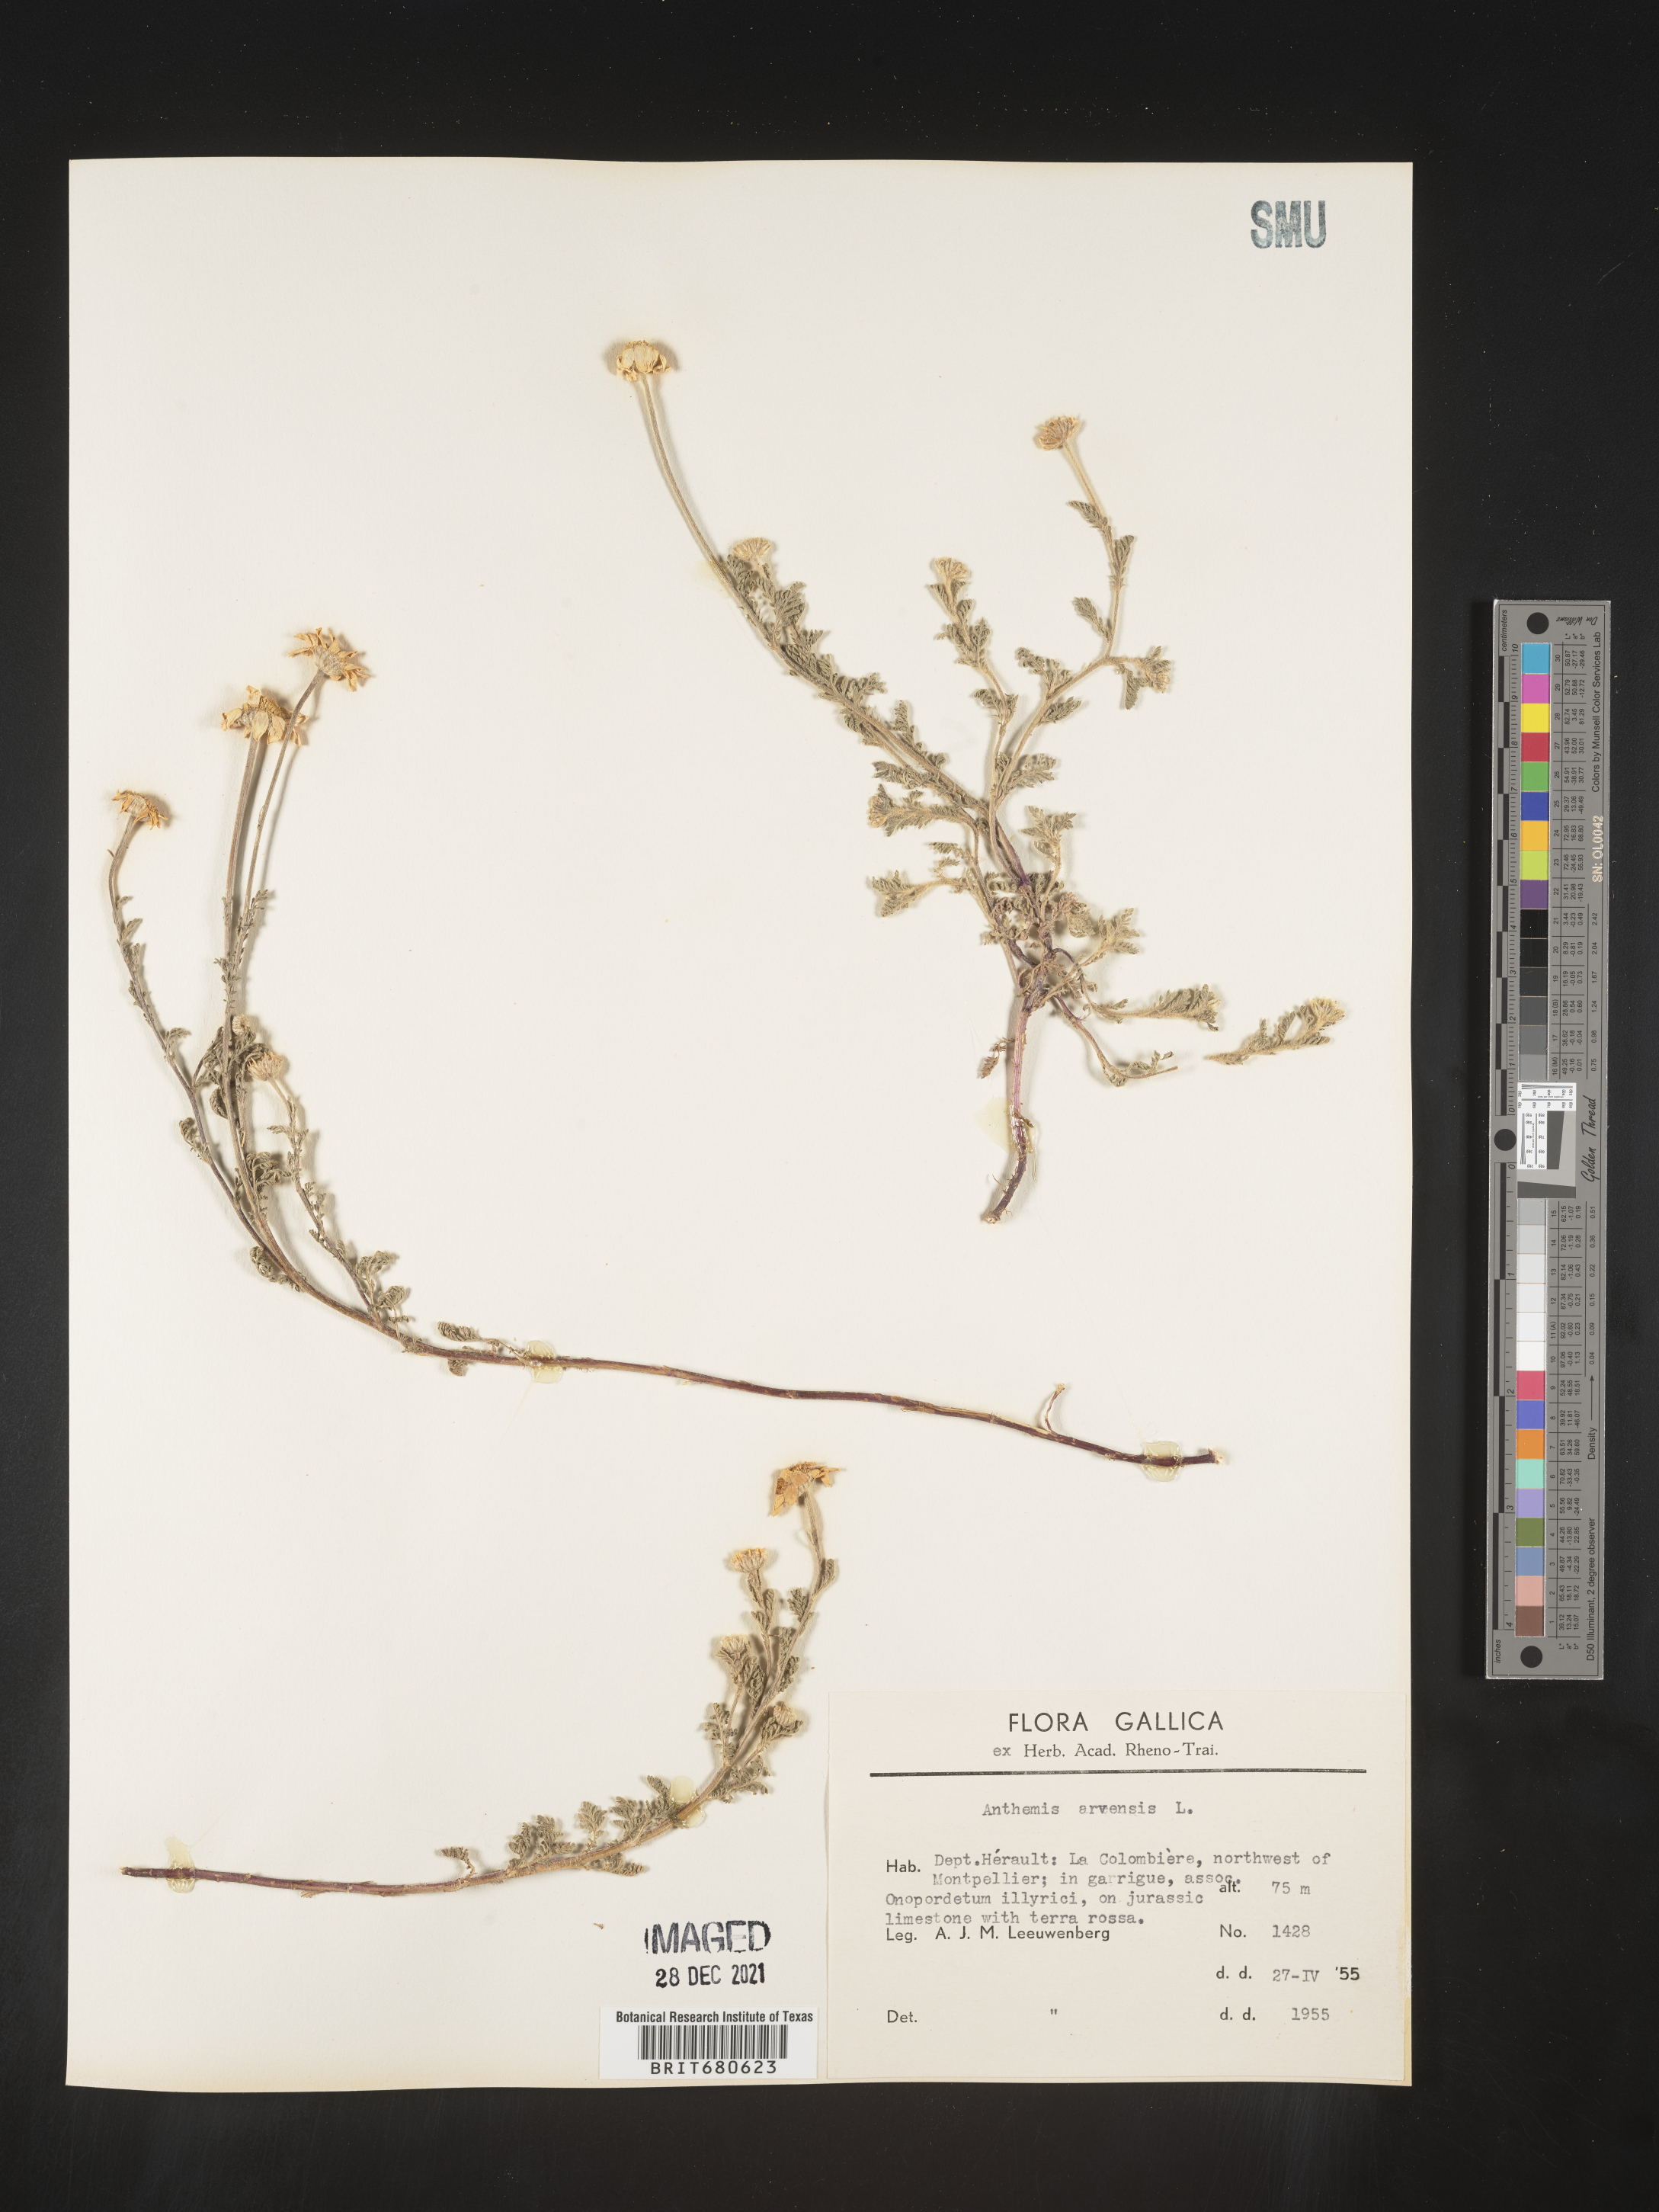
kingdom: Plantae
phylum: Tracheophyta
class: Magnoliopsida
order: Asterales
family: Asteraceae
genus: Anthemis
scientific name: Anthemis
